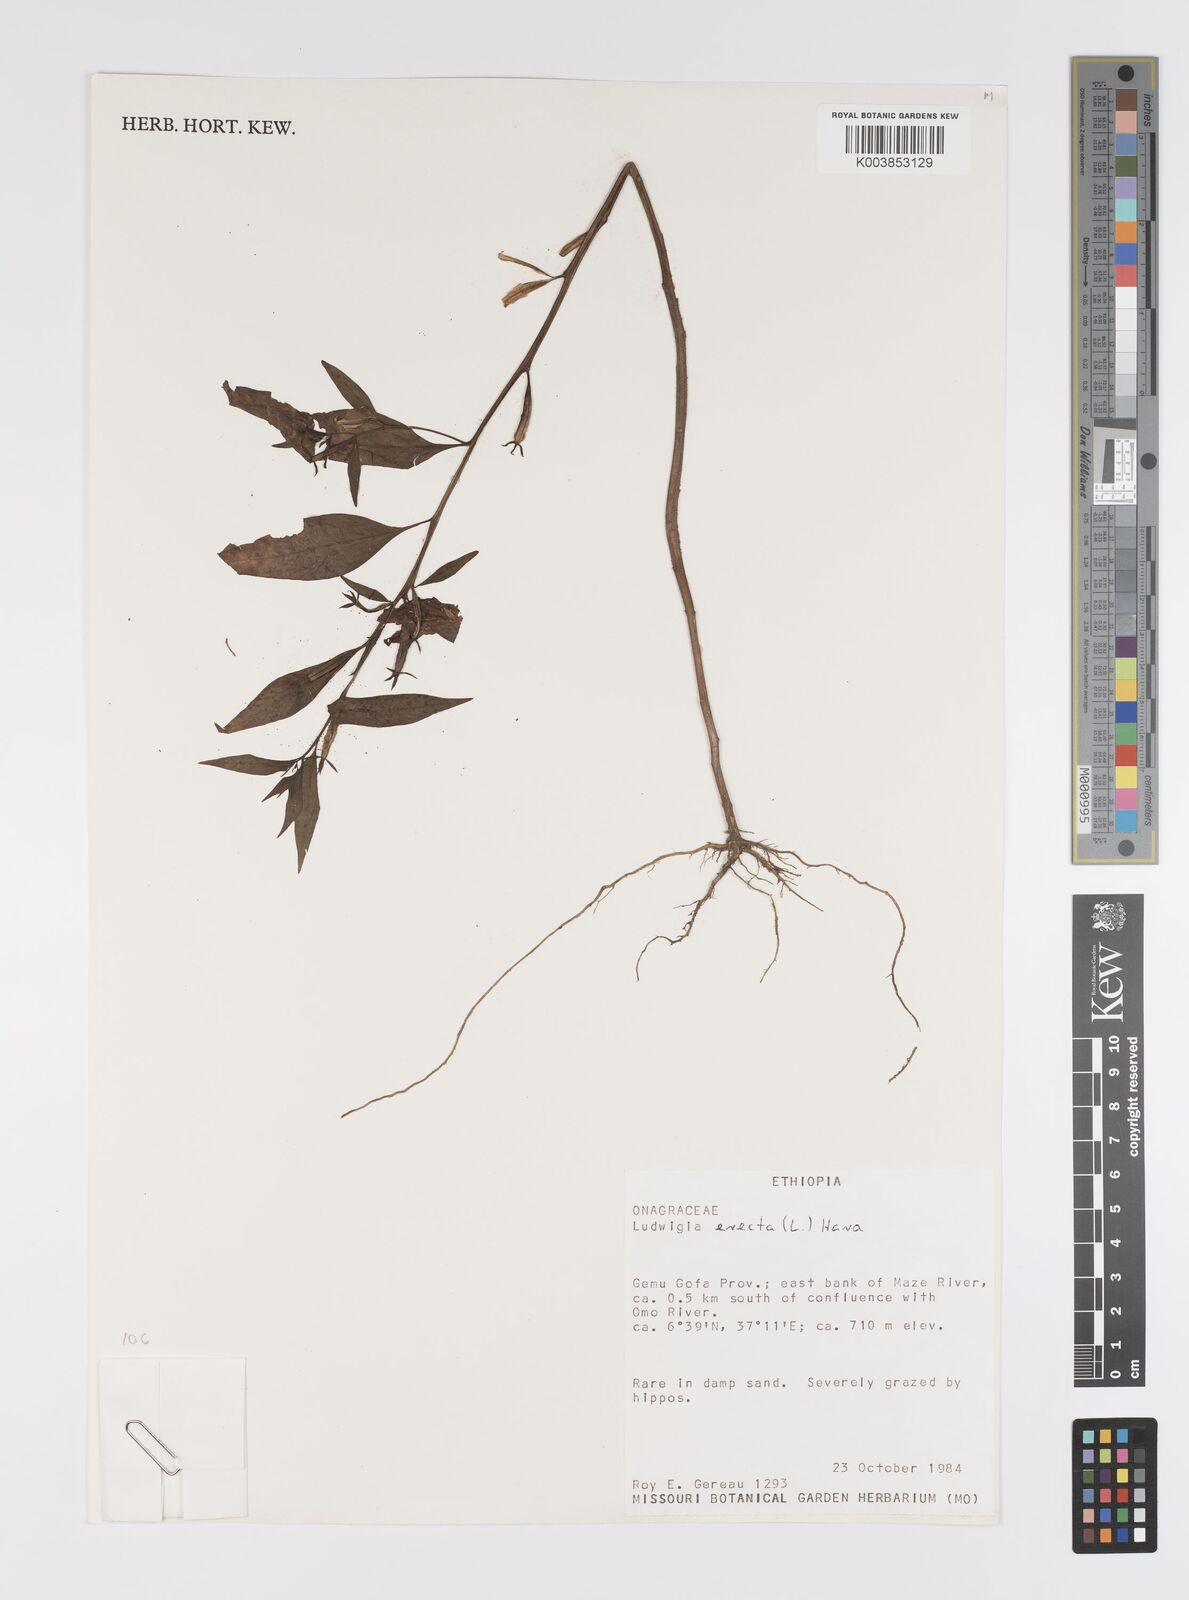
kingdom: Plantae
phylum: Tracheophyta
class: Magnoliopsida
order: Myrtales
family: Onagraceae
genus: Ludwigia
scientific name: Ludwigia erecta
